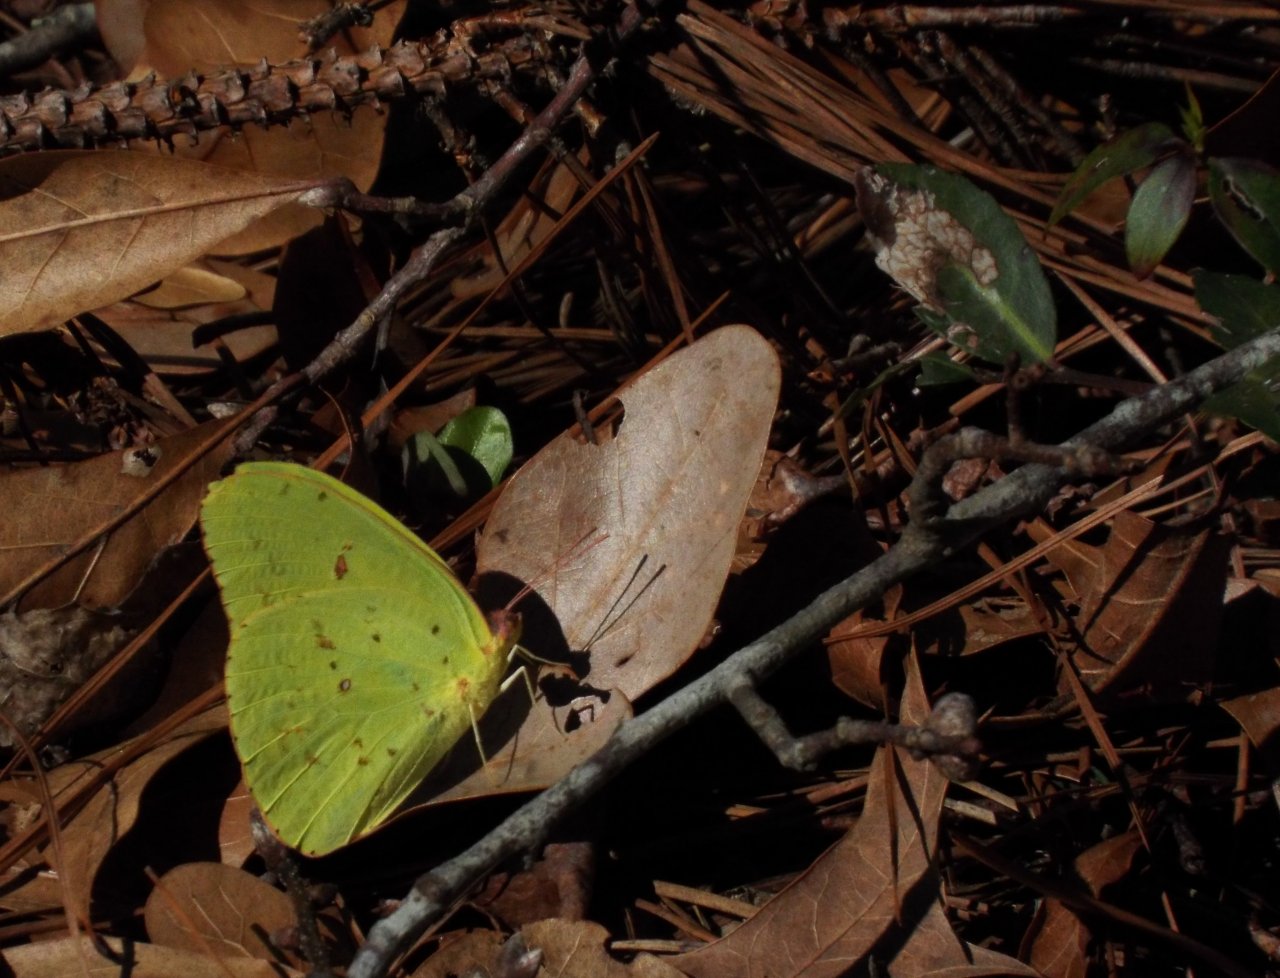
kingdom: Animalia
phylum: Arthropoda
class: Insecta
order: Lepidoptera
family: Pieridae
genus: Phoebis
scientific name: Phoebis sennae
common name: Cloudless Sulphur
